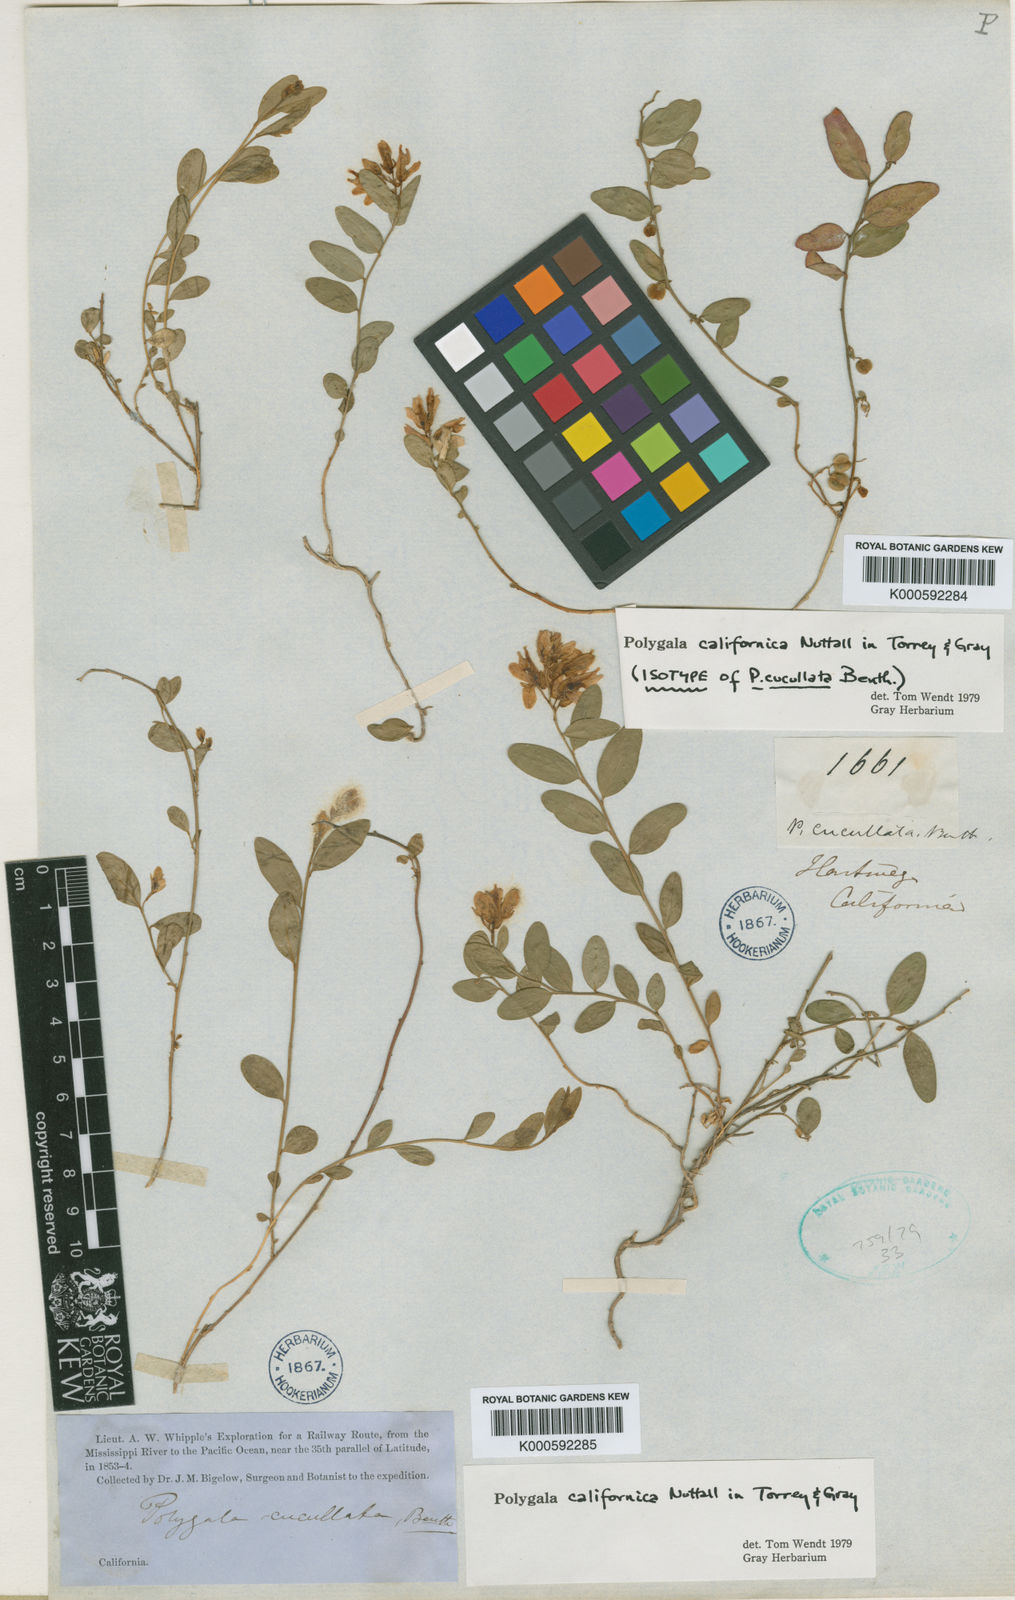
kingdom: Plantae
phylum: Tracheophyta
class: Magnoliopsida
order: Fabales
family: Polygalaceae
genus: Rhinotropis
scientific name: Rhinotropis californica
